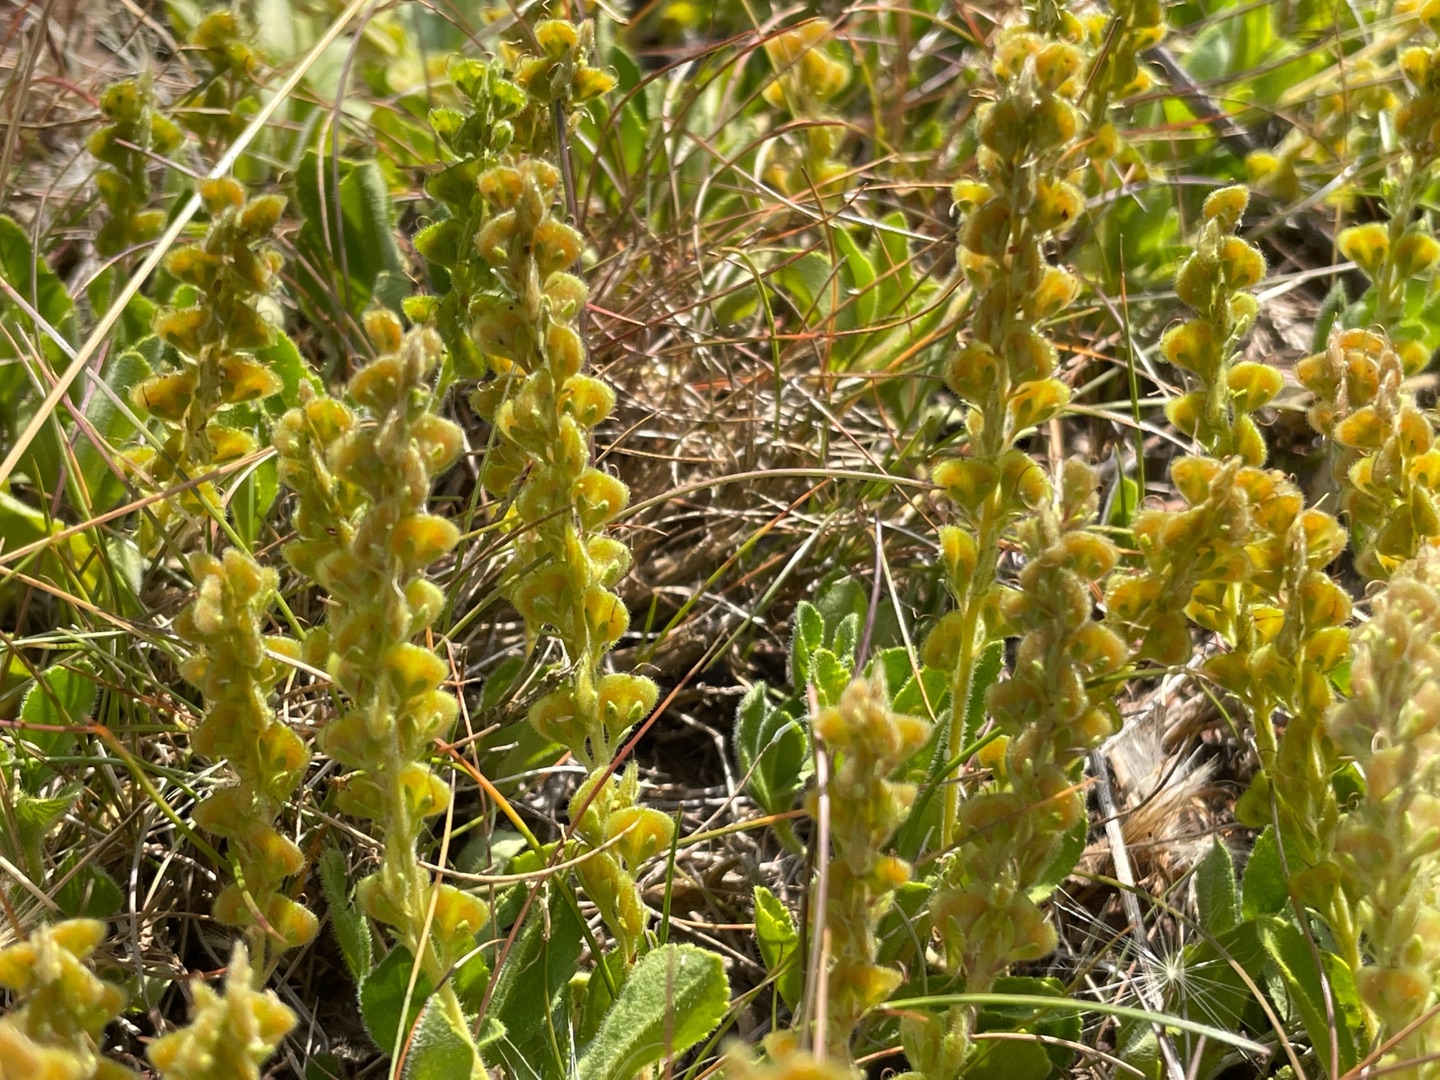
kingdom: Plantae
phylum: Tracheophyta
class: Magnoliopsida
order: Lamiales
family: Plantaginaceae
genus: Veronica
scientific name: Veronica officinalis
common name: Læge-ærenpris
